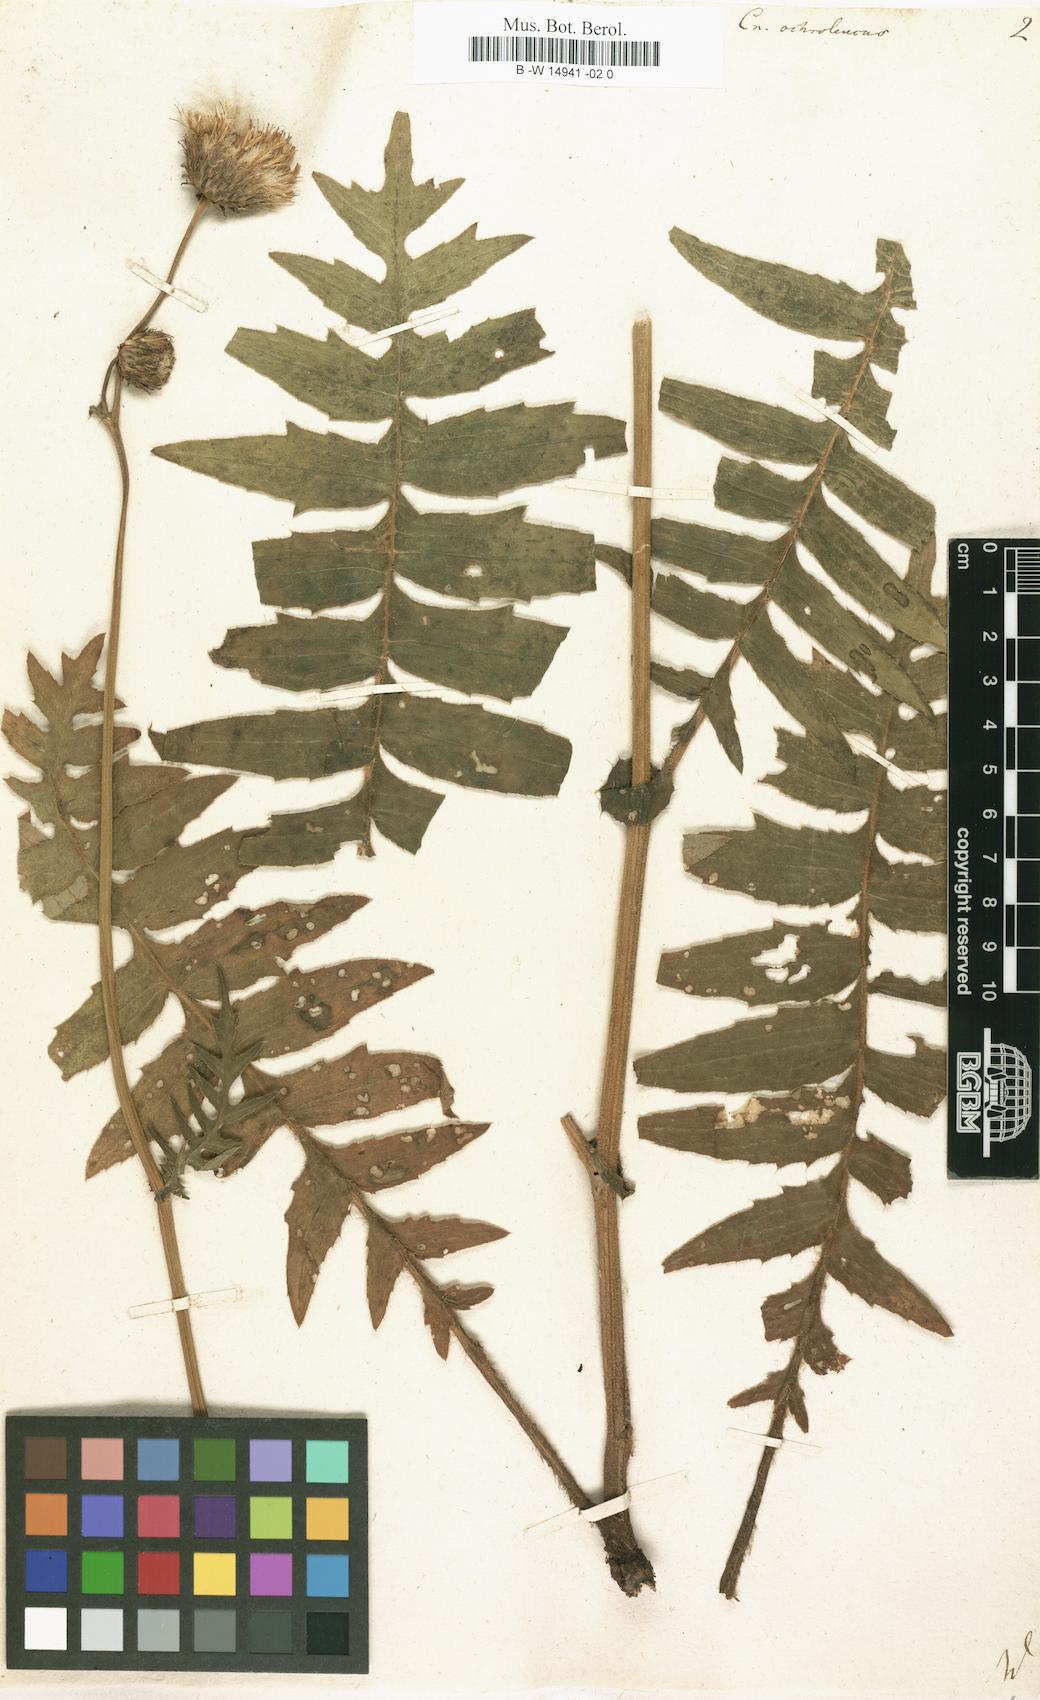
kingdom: Plantae
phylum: Tracheophyta
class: Magnoliopsida
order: Asterales
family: Asteraceae
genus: Cirsium
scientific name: Cirsium ochroleucum
